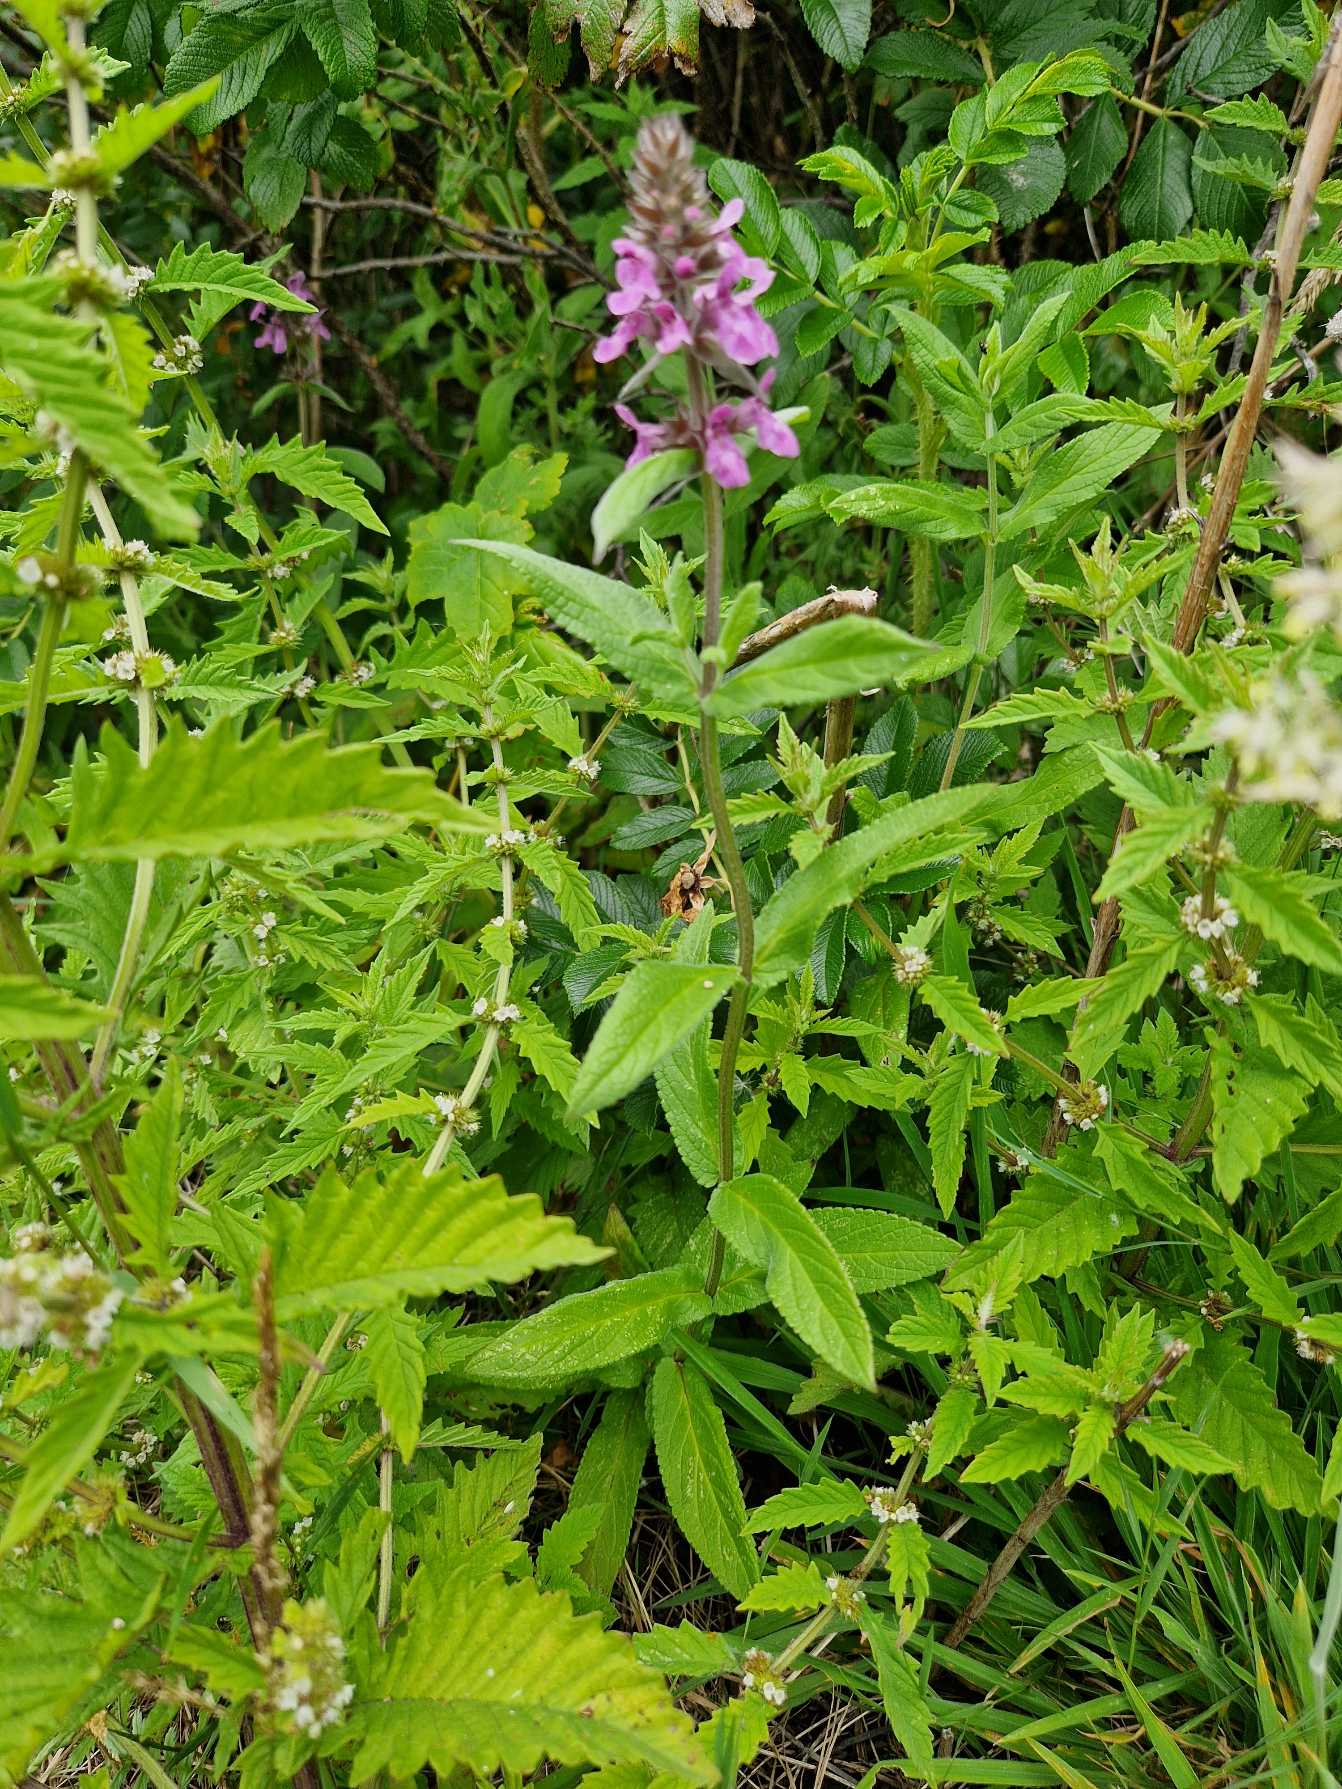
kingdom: Plantae
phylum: Tracheophyta
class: Magnoliopsida
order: Lamiales
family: Lamiaceae
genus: Stachys
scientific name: Stachys palustris
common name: Kær-galtetand
